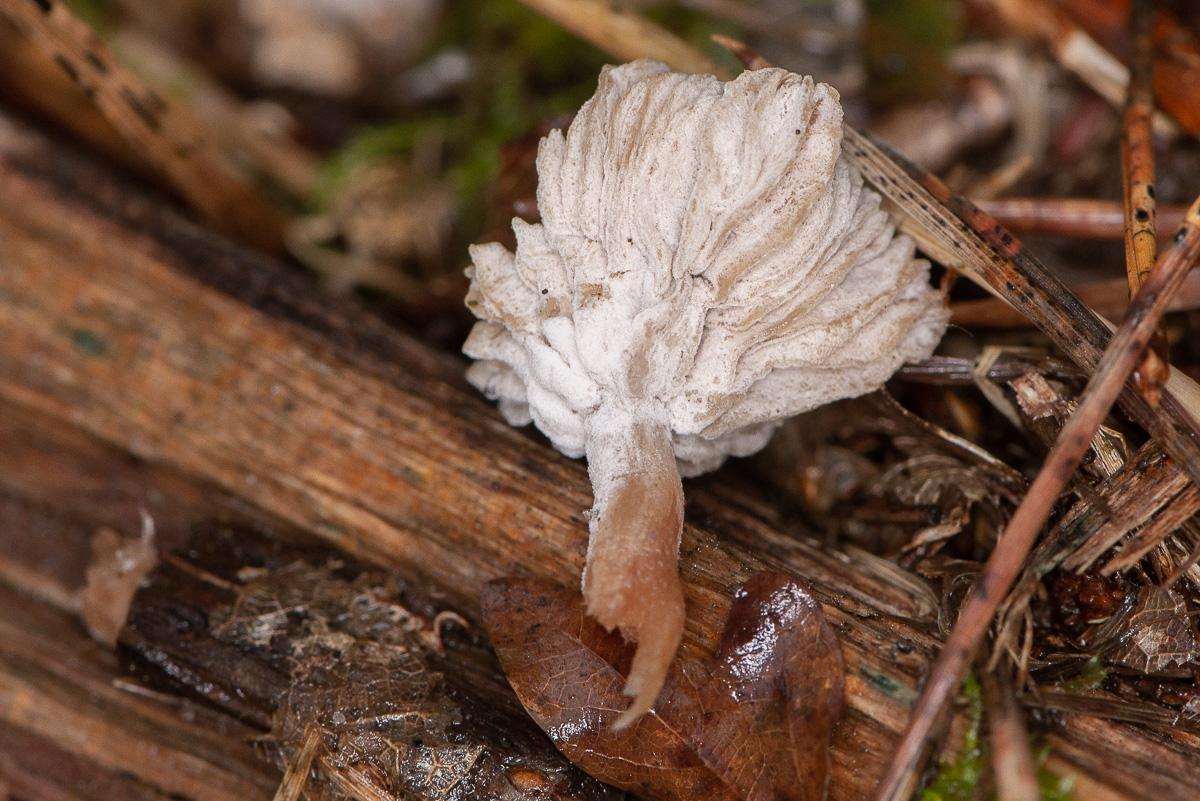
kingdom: Fungi
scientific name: Fungi
